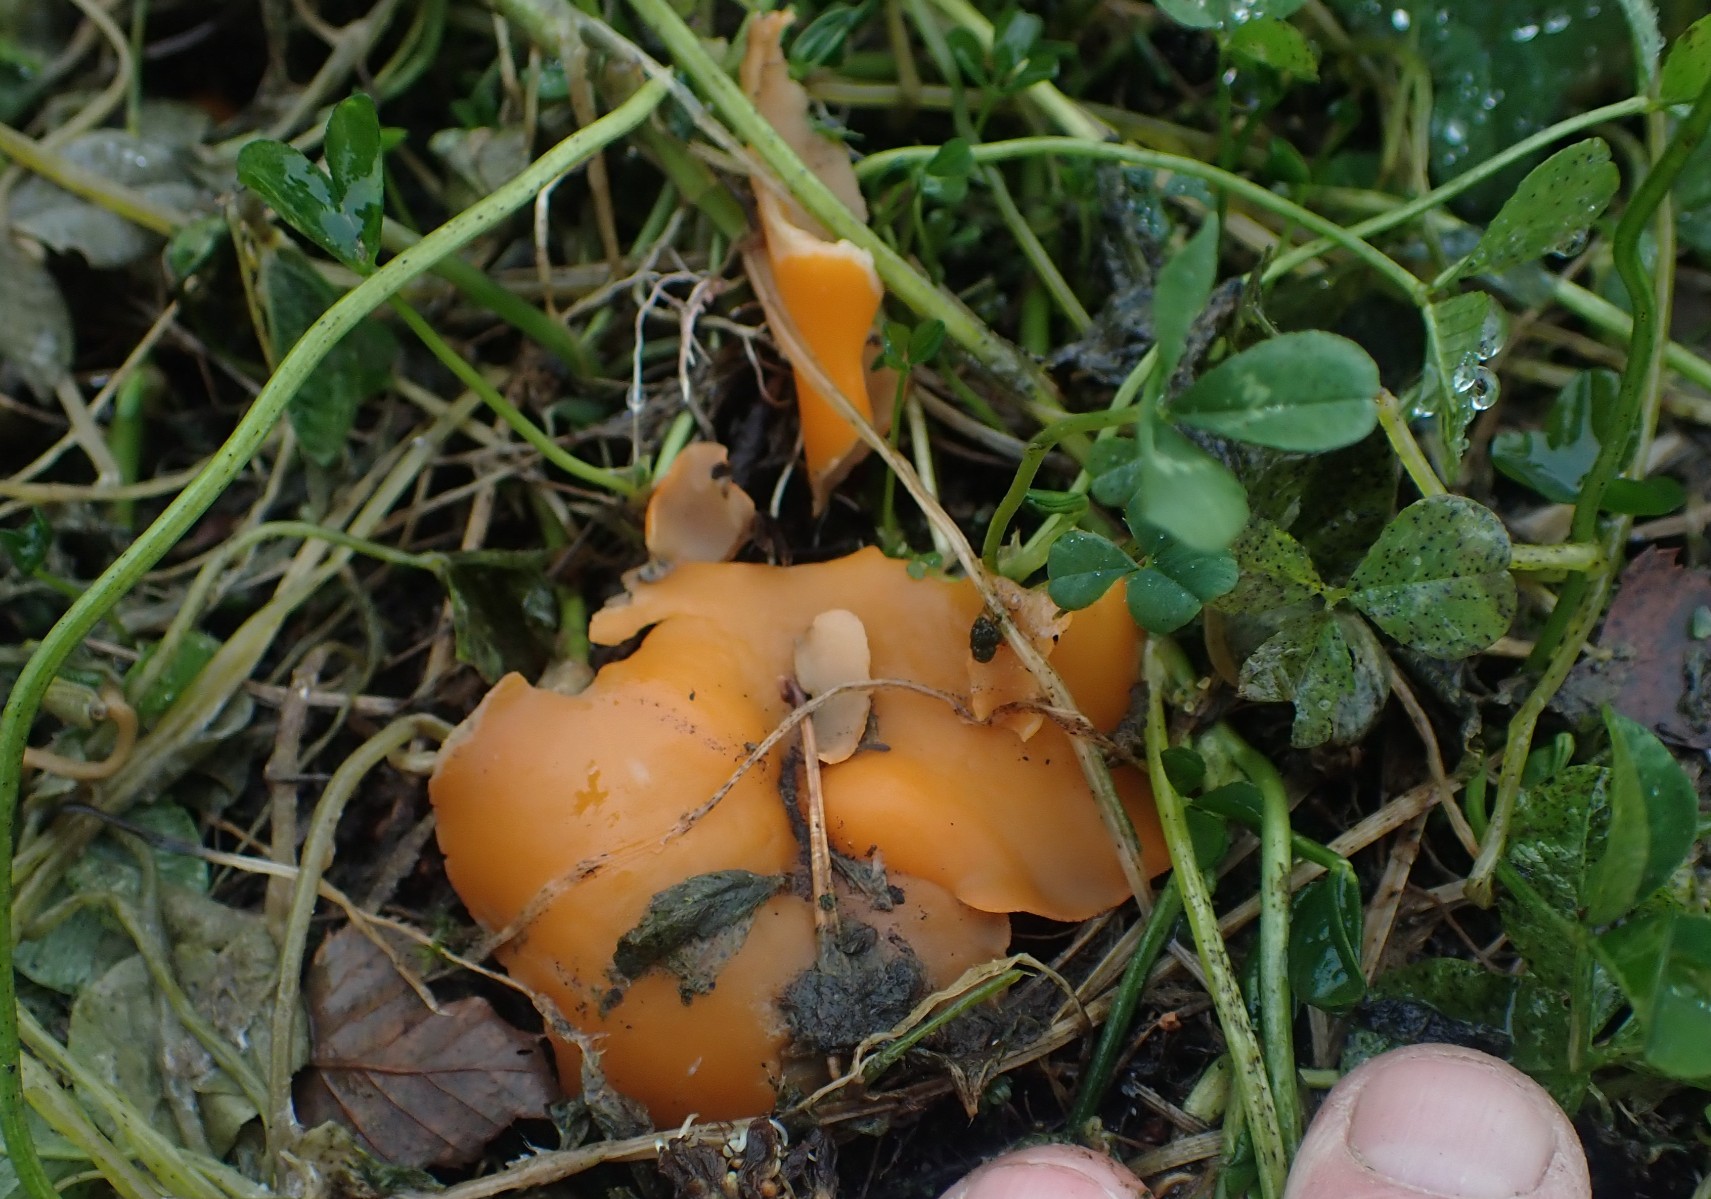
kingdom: Fungi
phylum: Ascomycota
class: Pezizomycetes
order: Pezizales
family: Pyronemataceae
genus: Aleuria
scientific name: Aleuria aurantia
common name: almindelig orangebæger
